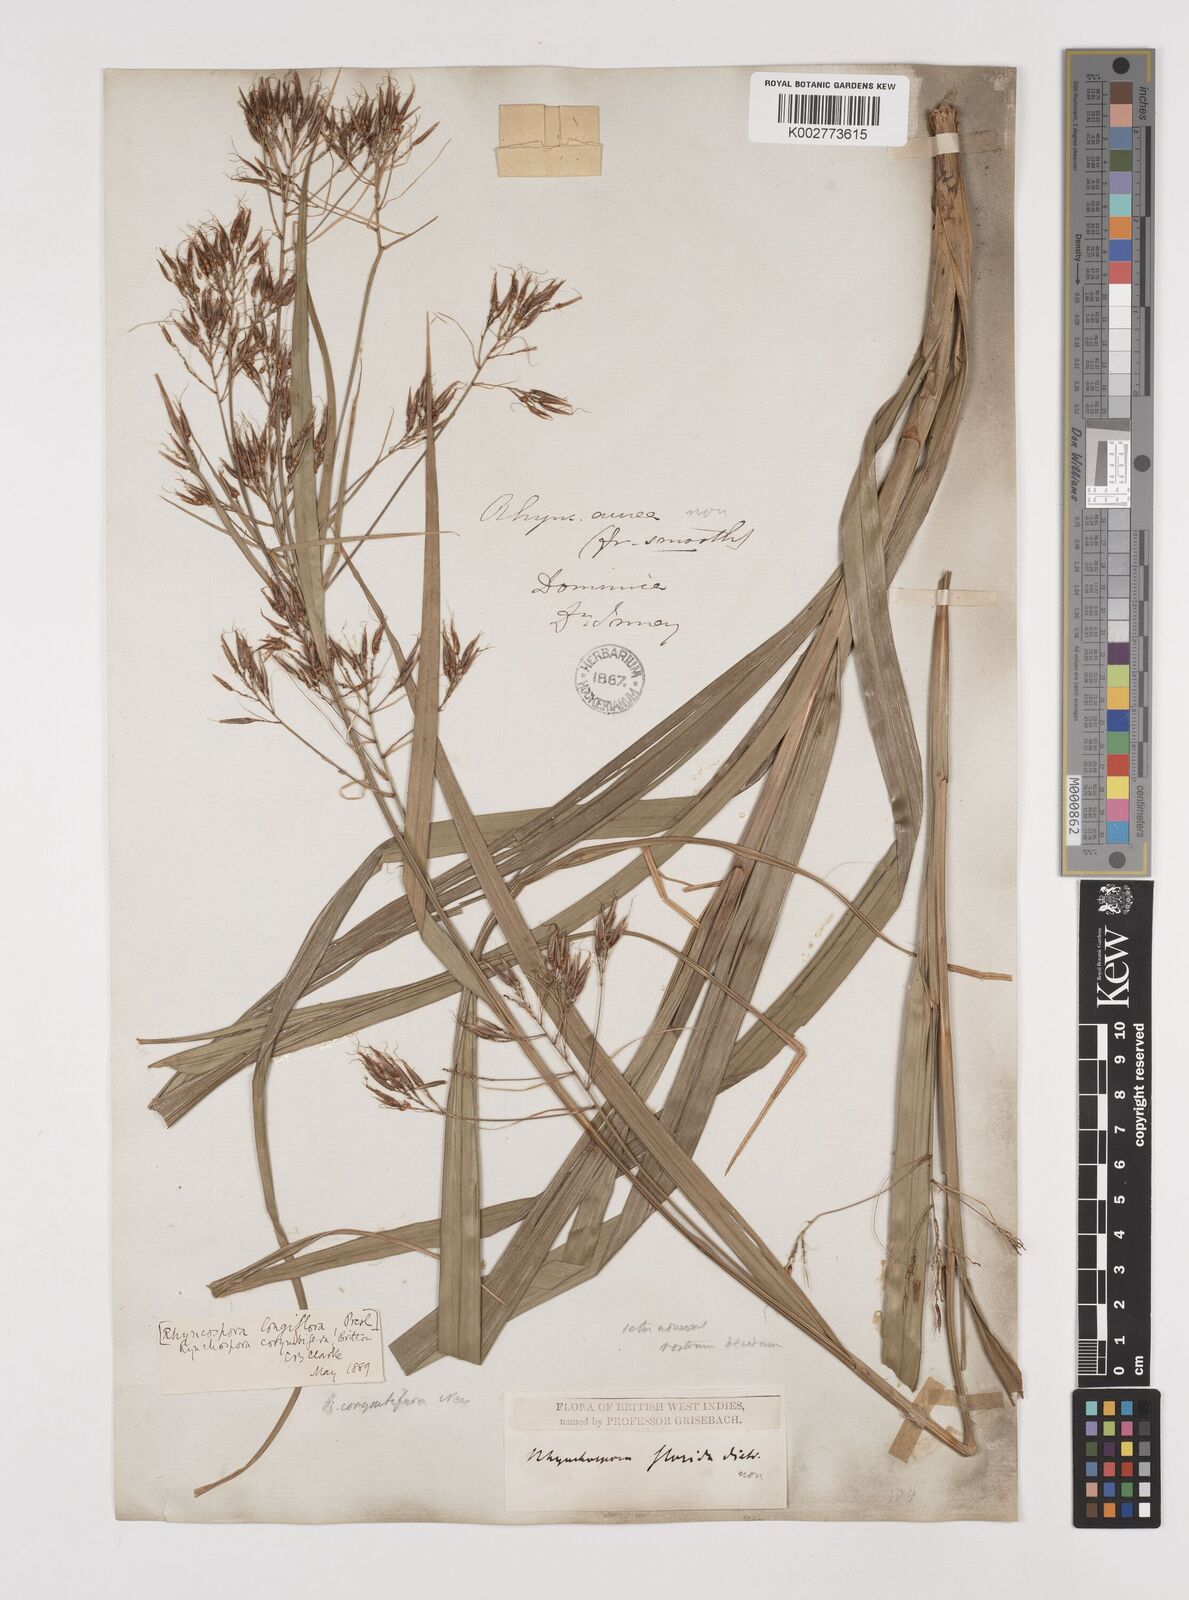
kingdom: Plantae
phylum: Tracheophyta
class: Liliopsida
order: Poales
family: Cyperaceae
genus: Rhynchospora
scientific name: Rhynchospora longiflora
